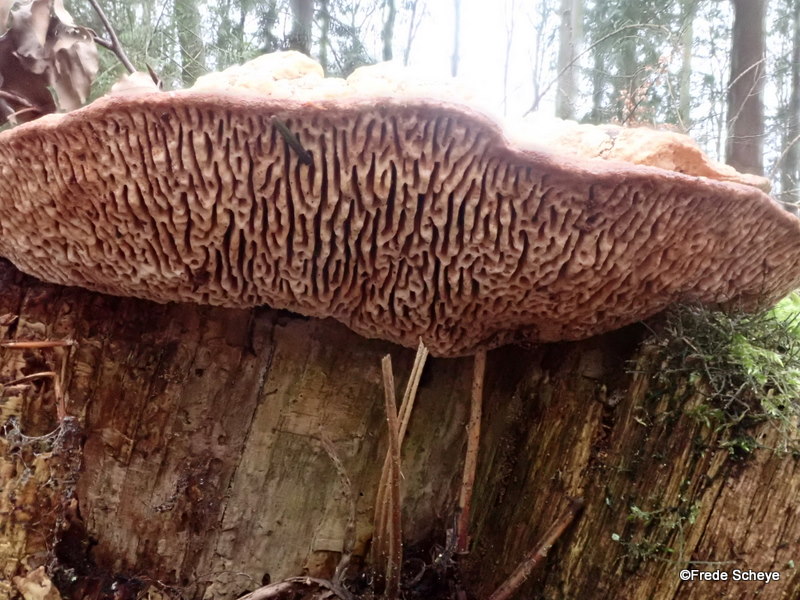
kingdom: Fungi
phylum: Basidiomycota
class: Agaricomycetes
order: Polyporales
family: Fomitopsidaceae
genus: Daedalea
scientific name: Daedalea quercina
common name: ege-labyrintsvamp
